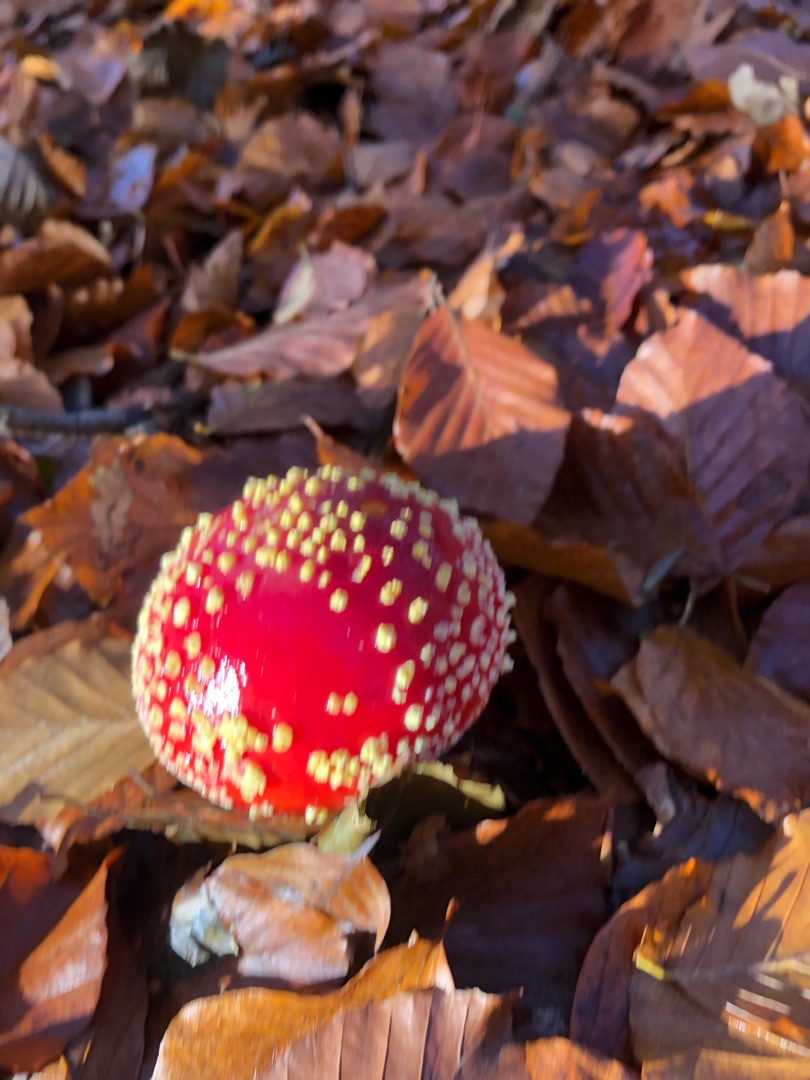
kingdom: Fungi
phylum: Basidiomycota
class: Agaricomycetes
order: Agaricales
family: Amanitaceae
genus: Amanita
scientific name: Amanita muscaria
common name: Rød fluesvamp
